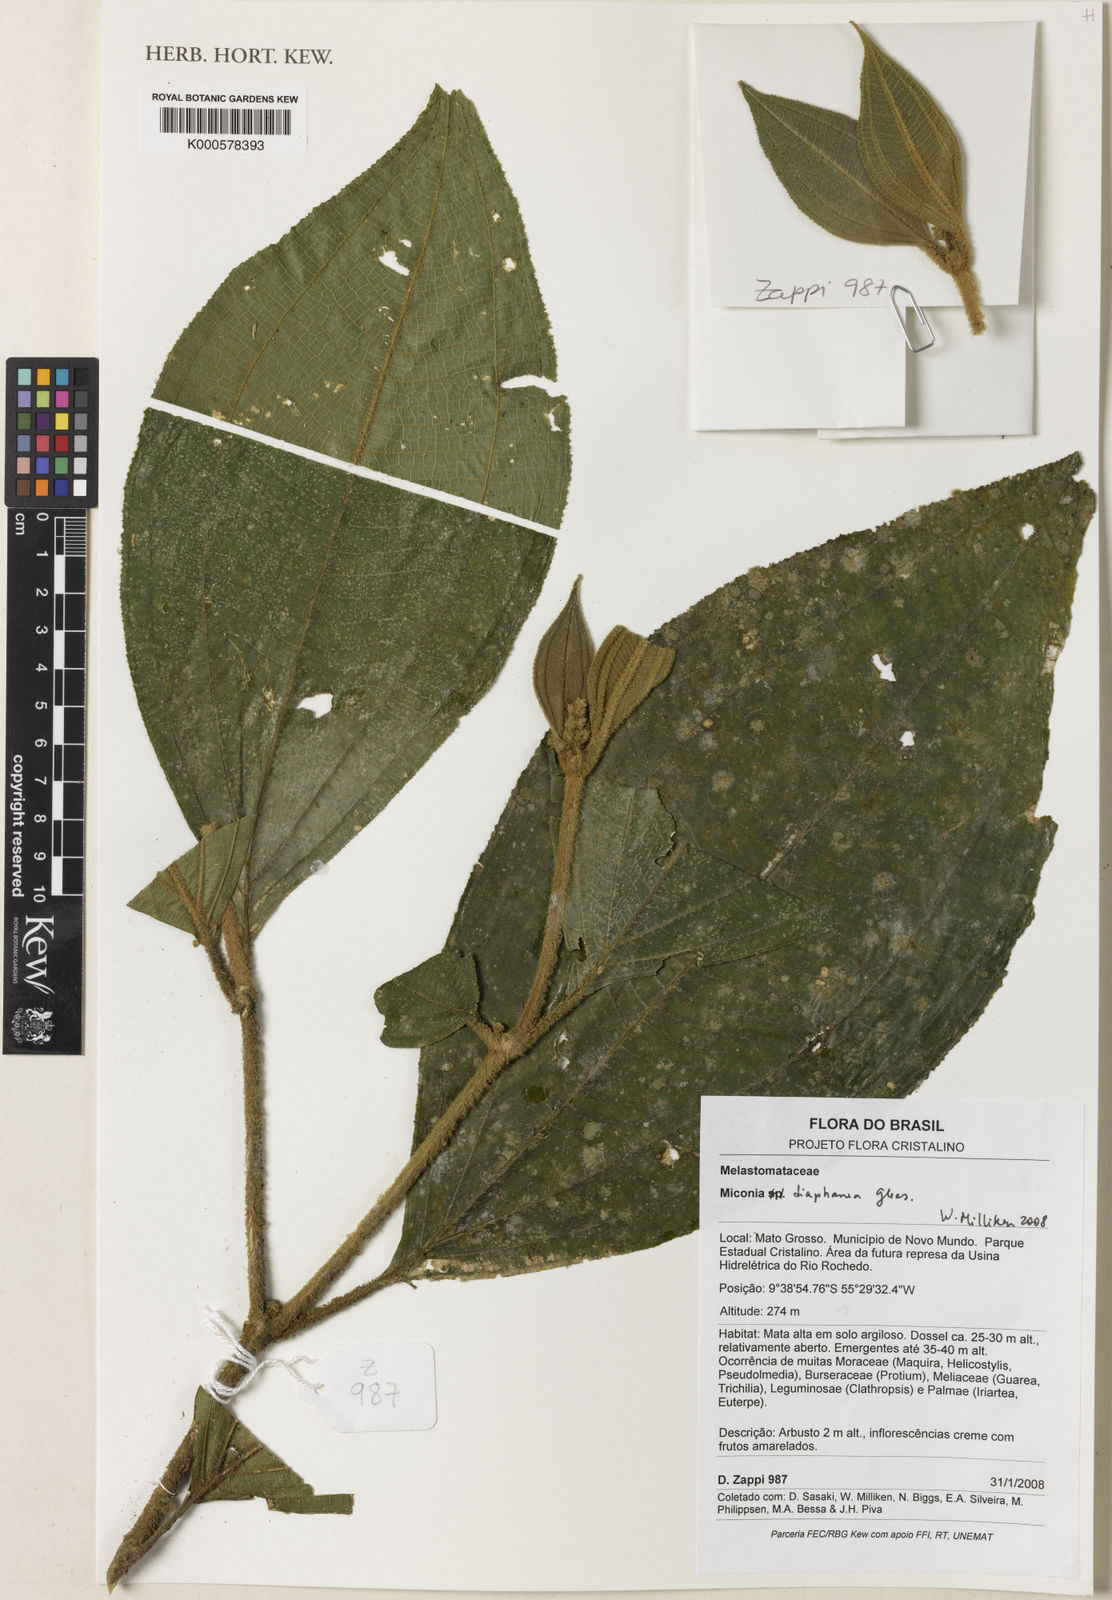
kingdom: Plantae
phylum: Tracheophyta
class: Magnoliopsida
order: Myrtales
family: Melastomataceae
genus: Miconia
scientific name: Miconia diaphanea
